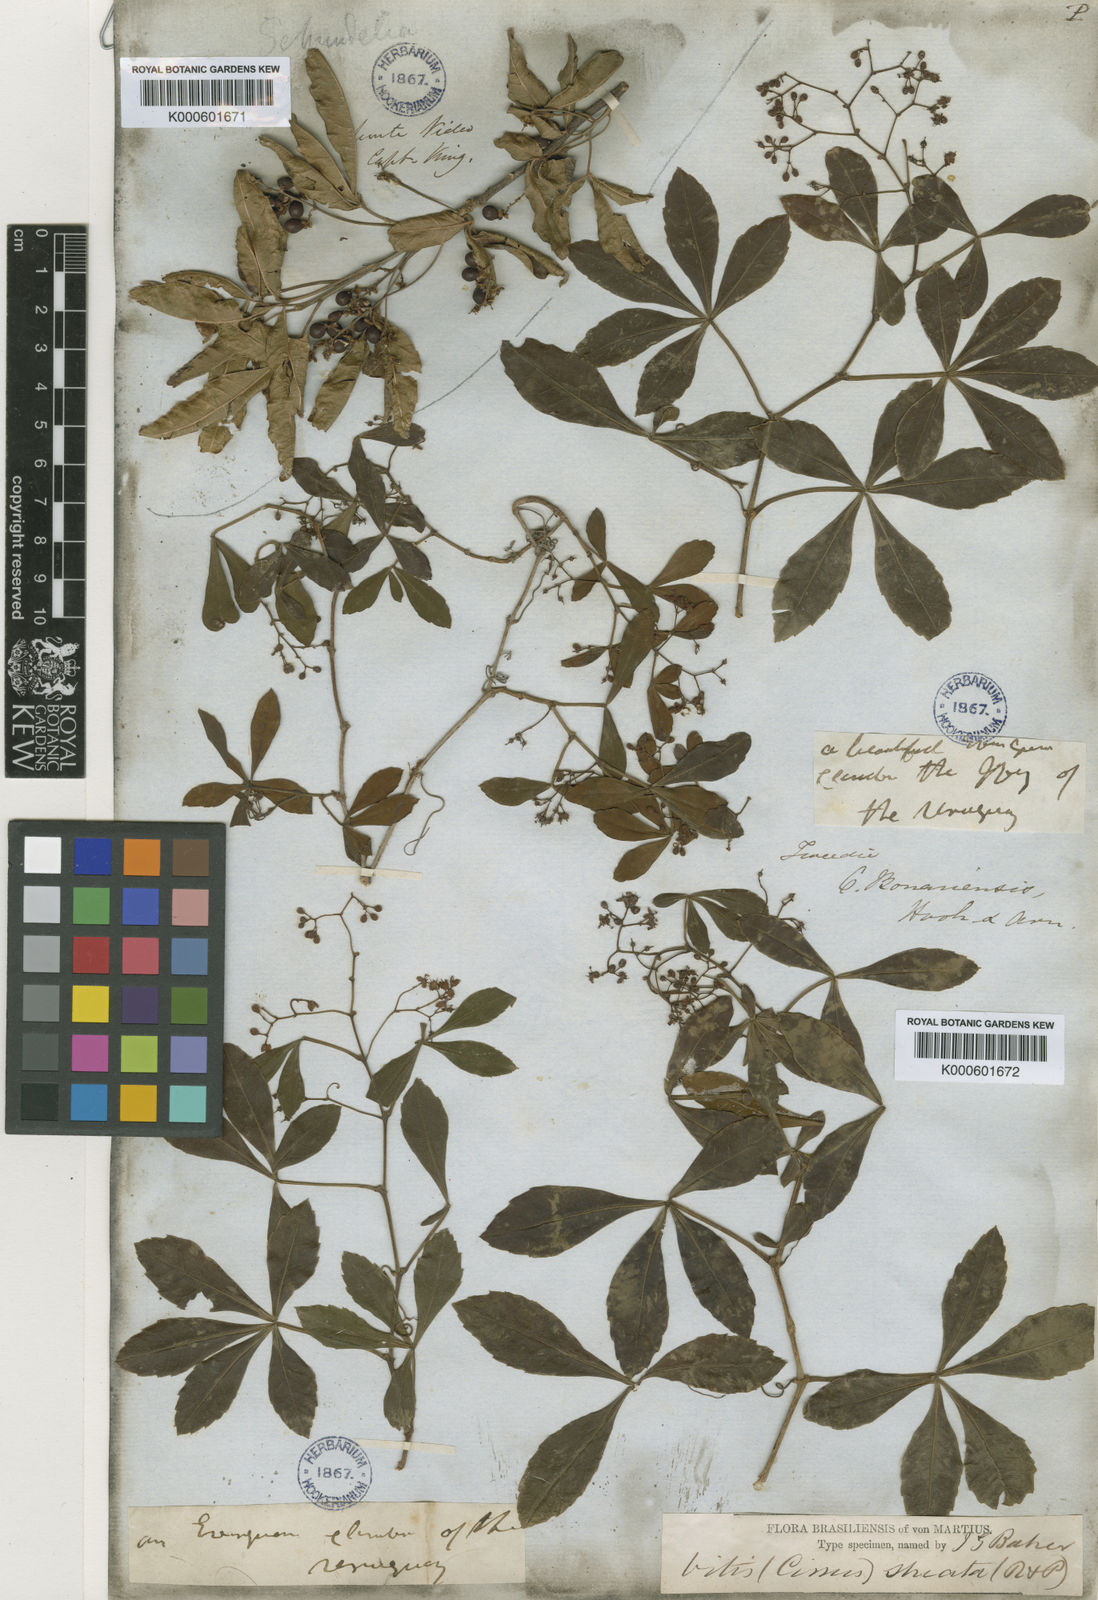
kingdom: Plantae
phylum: Tracheophyta
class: Magnoliopsida
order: Vitales
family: Vitaceae
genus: Clematicissus
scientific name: Clematicissus striata
